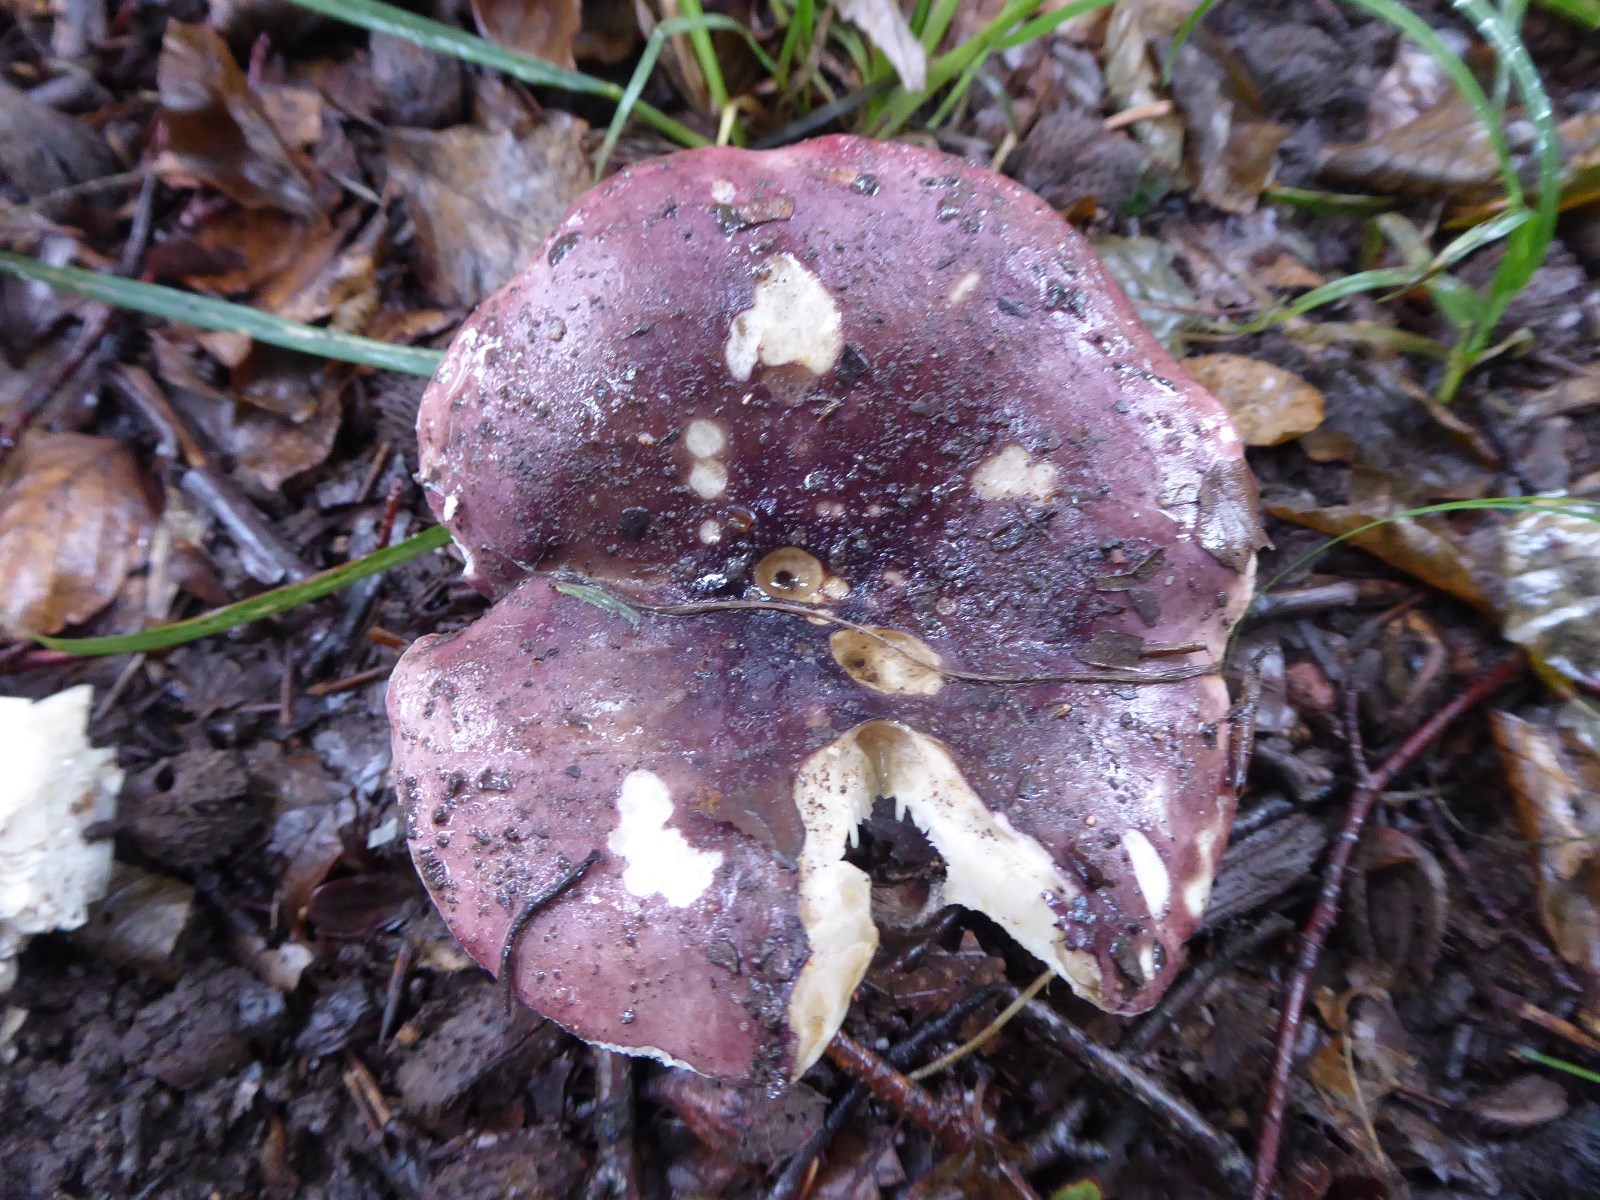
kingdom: Fungi
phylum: Basidiomycota
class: Agaricomycetes
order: Russulales
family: Russulaceae
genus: Russula
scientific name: Russula atropurpurea
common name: purpurbroget skørhat
